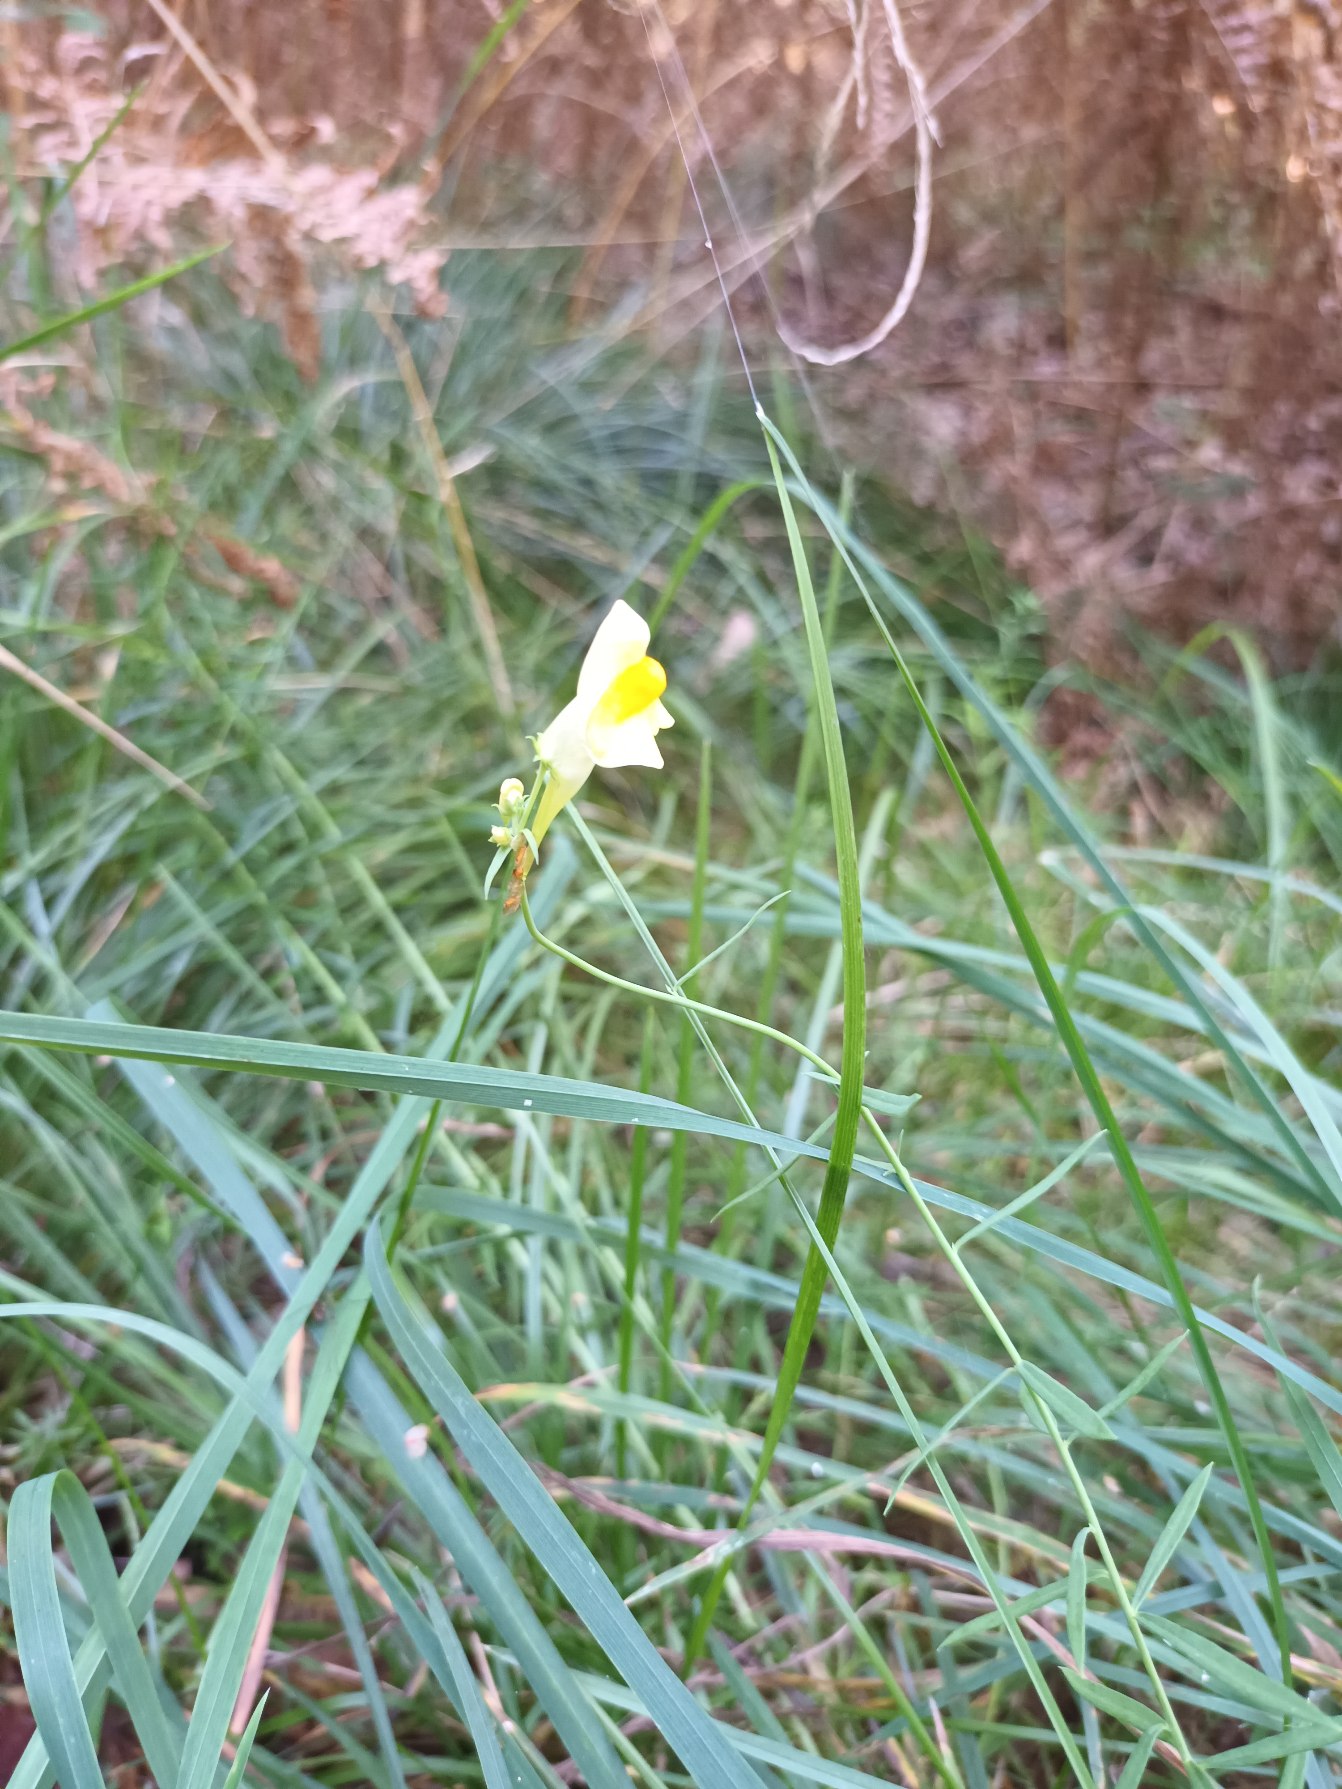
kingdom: Plantae
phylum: Tracheophyta
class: Magnoliopsida
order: Lamiales
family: Plantaginaceae
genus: Linaria
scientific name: Linaria vulgaris
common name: Almindelig torskemund
